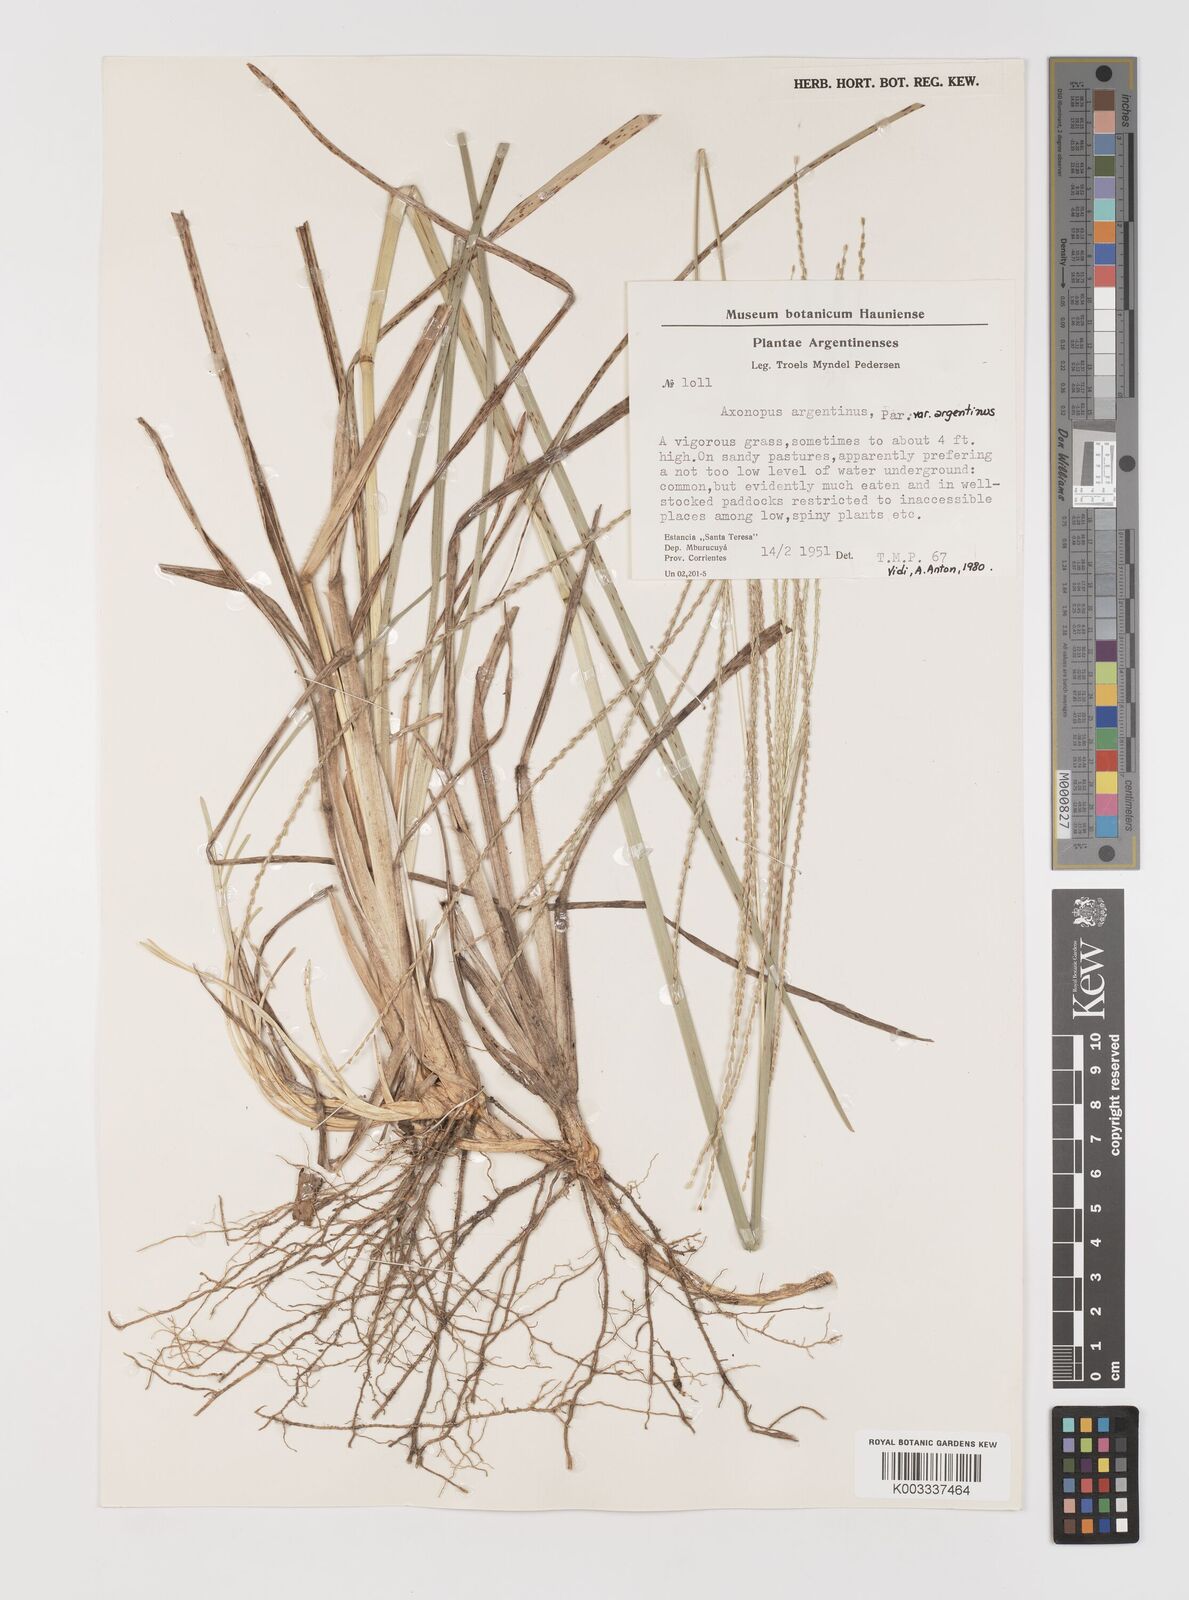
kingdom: Plantae
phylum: Tracheophyta
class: Liliopsida
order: Poales
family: Poaceae
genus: Axonopus
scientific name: Axonopus argentinus
